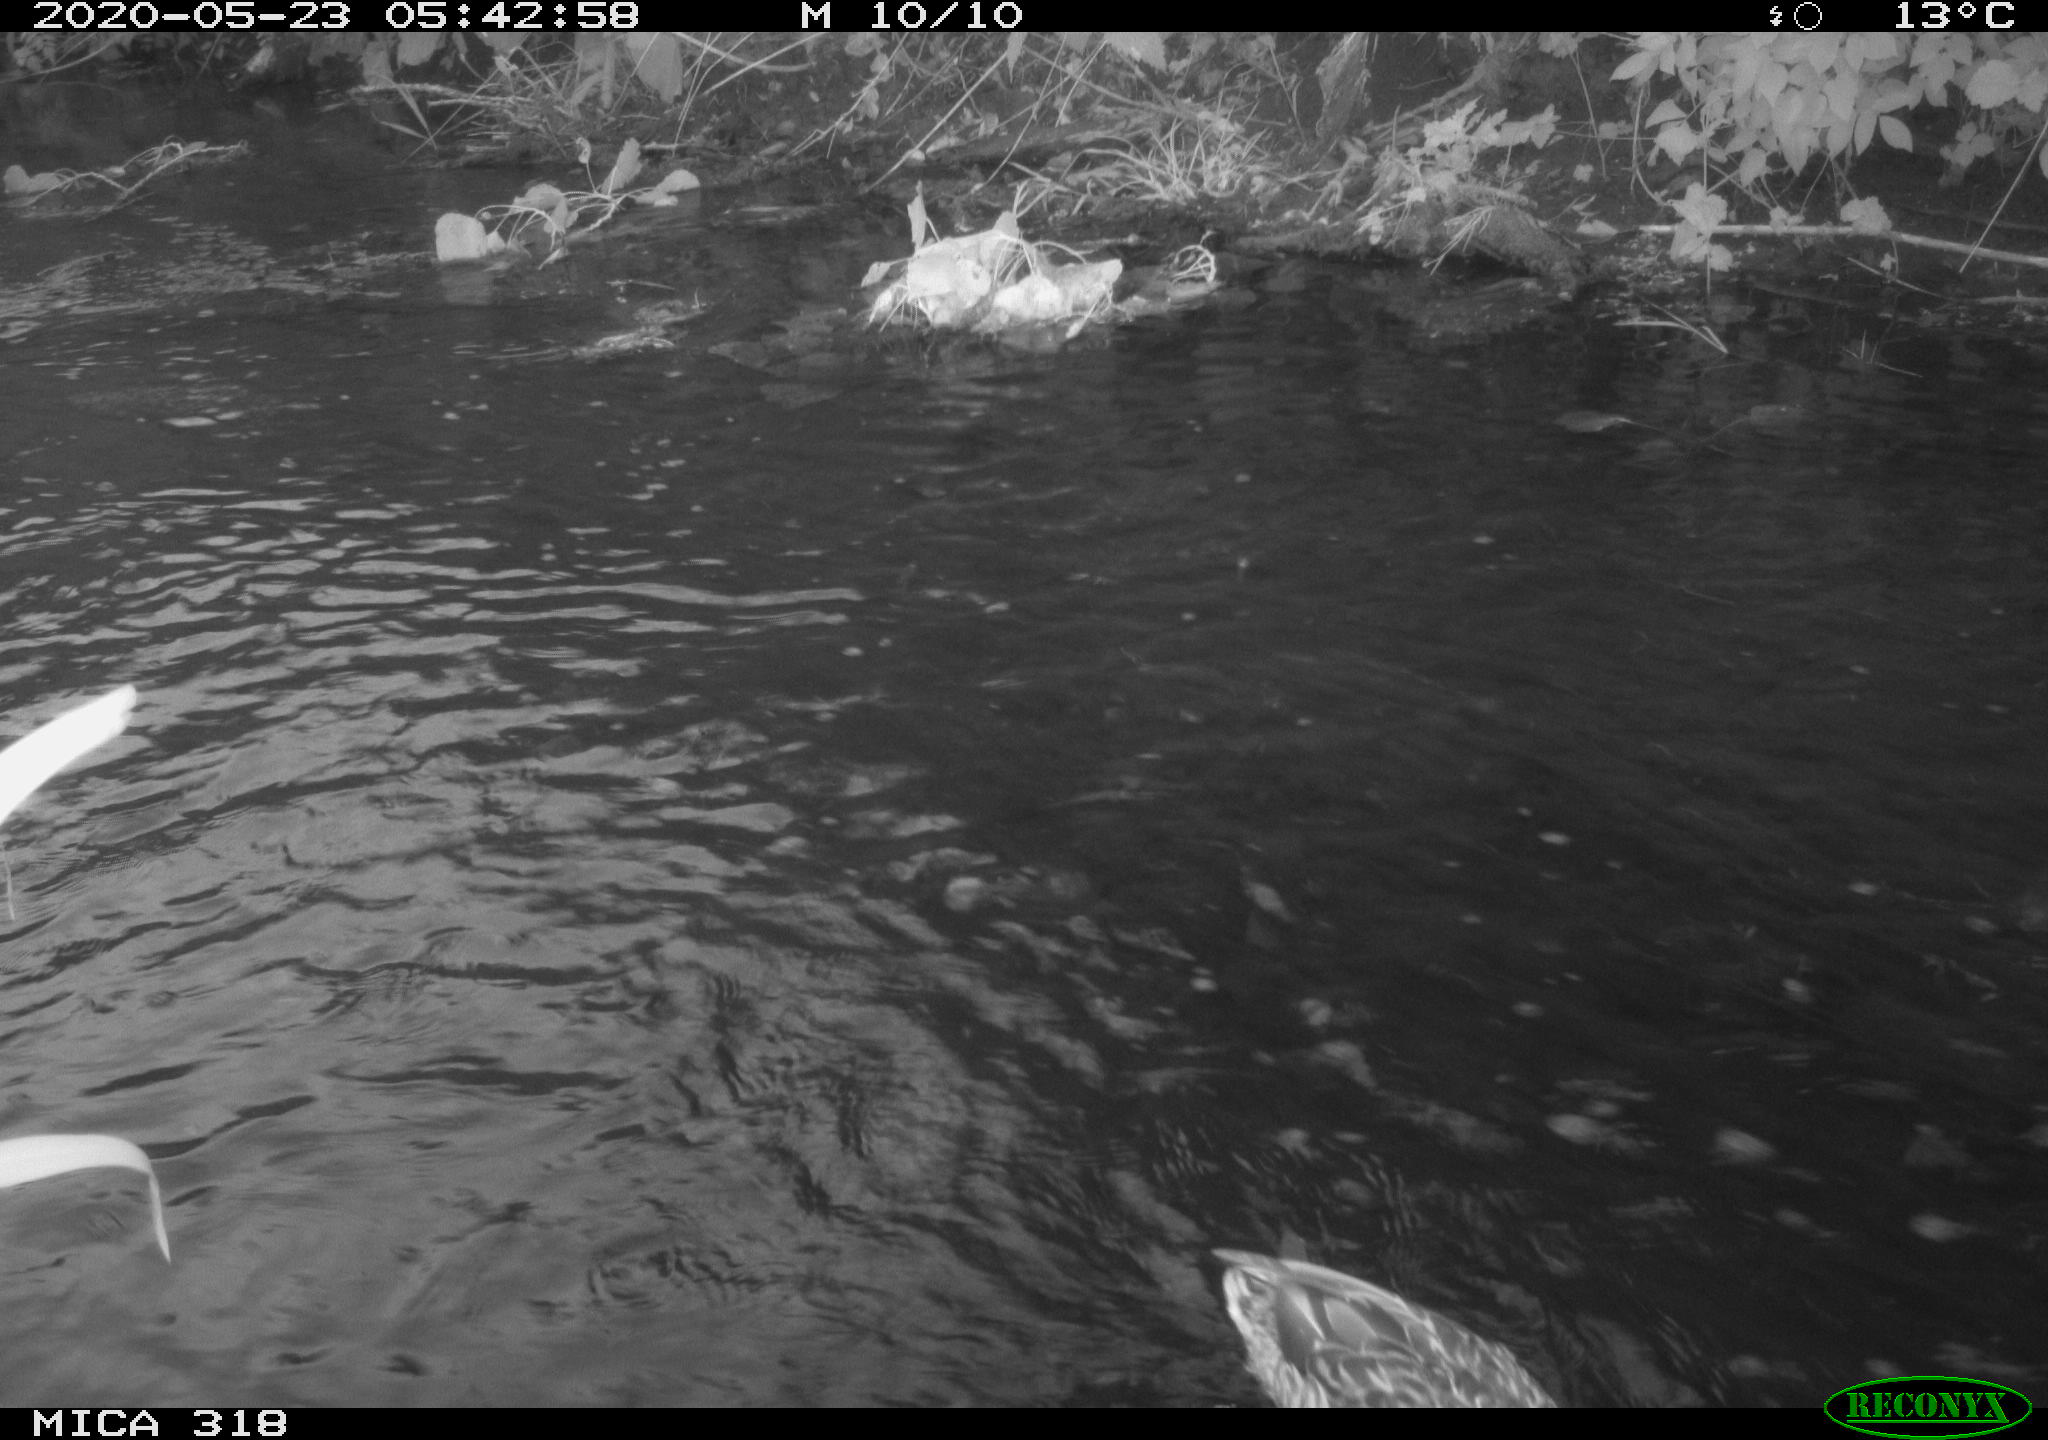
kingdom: Animalia
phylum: Chordata
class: Aves
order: Anseriformes
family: Anatidae
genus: Anas
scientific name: Anas platyrhynchos
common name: Mallard
